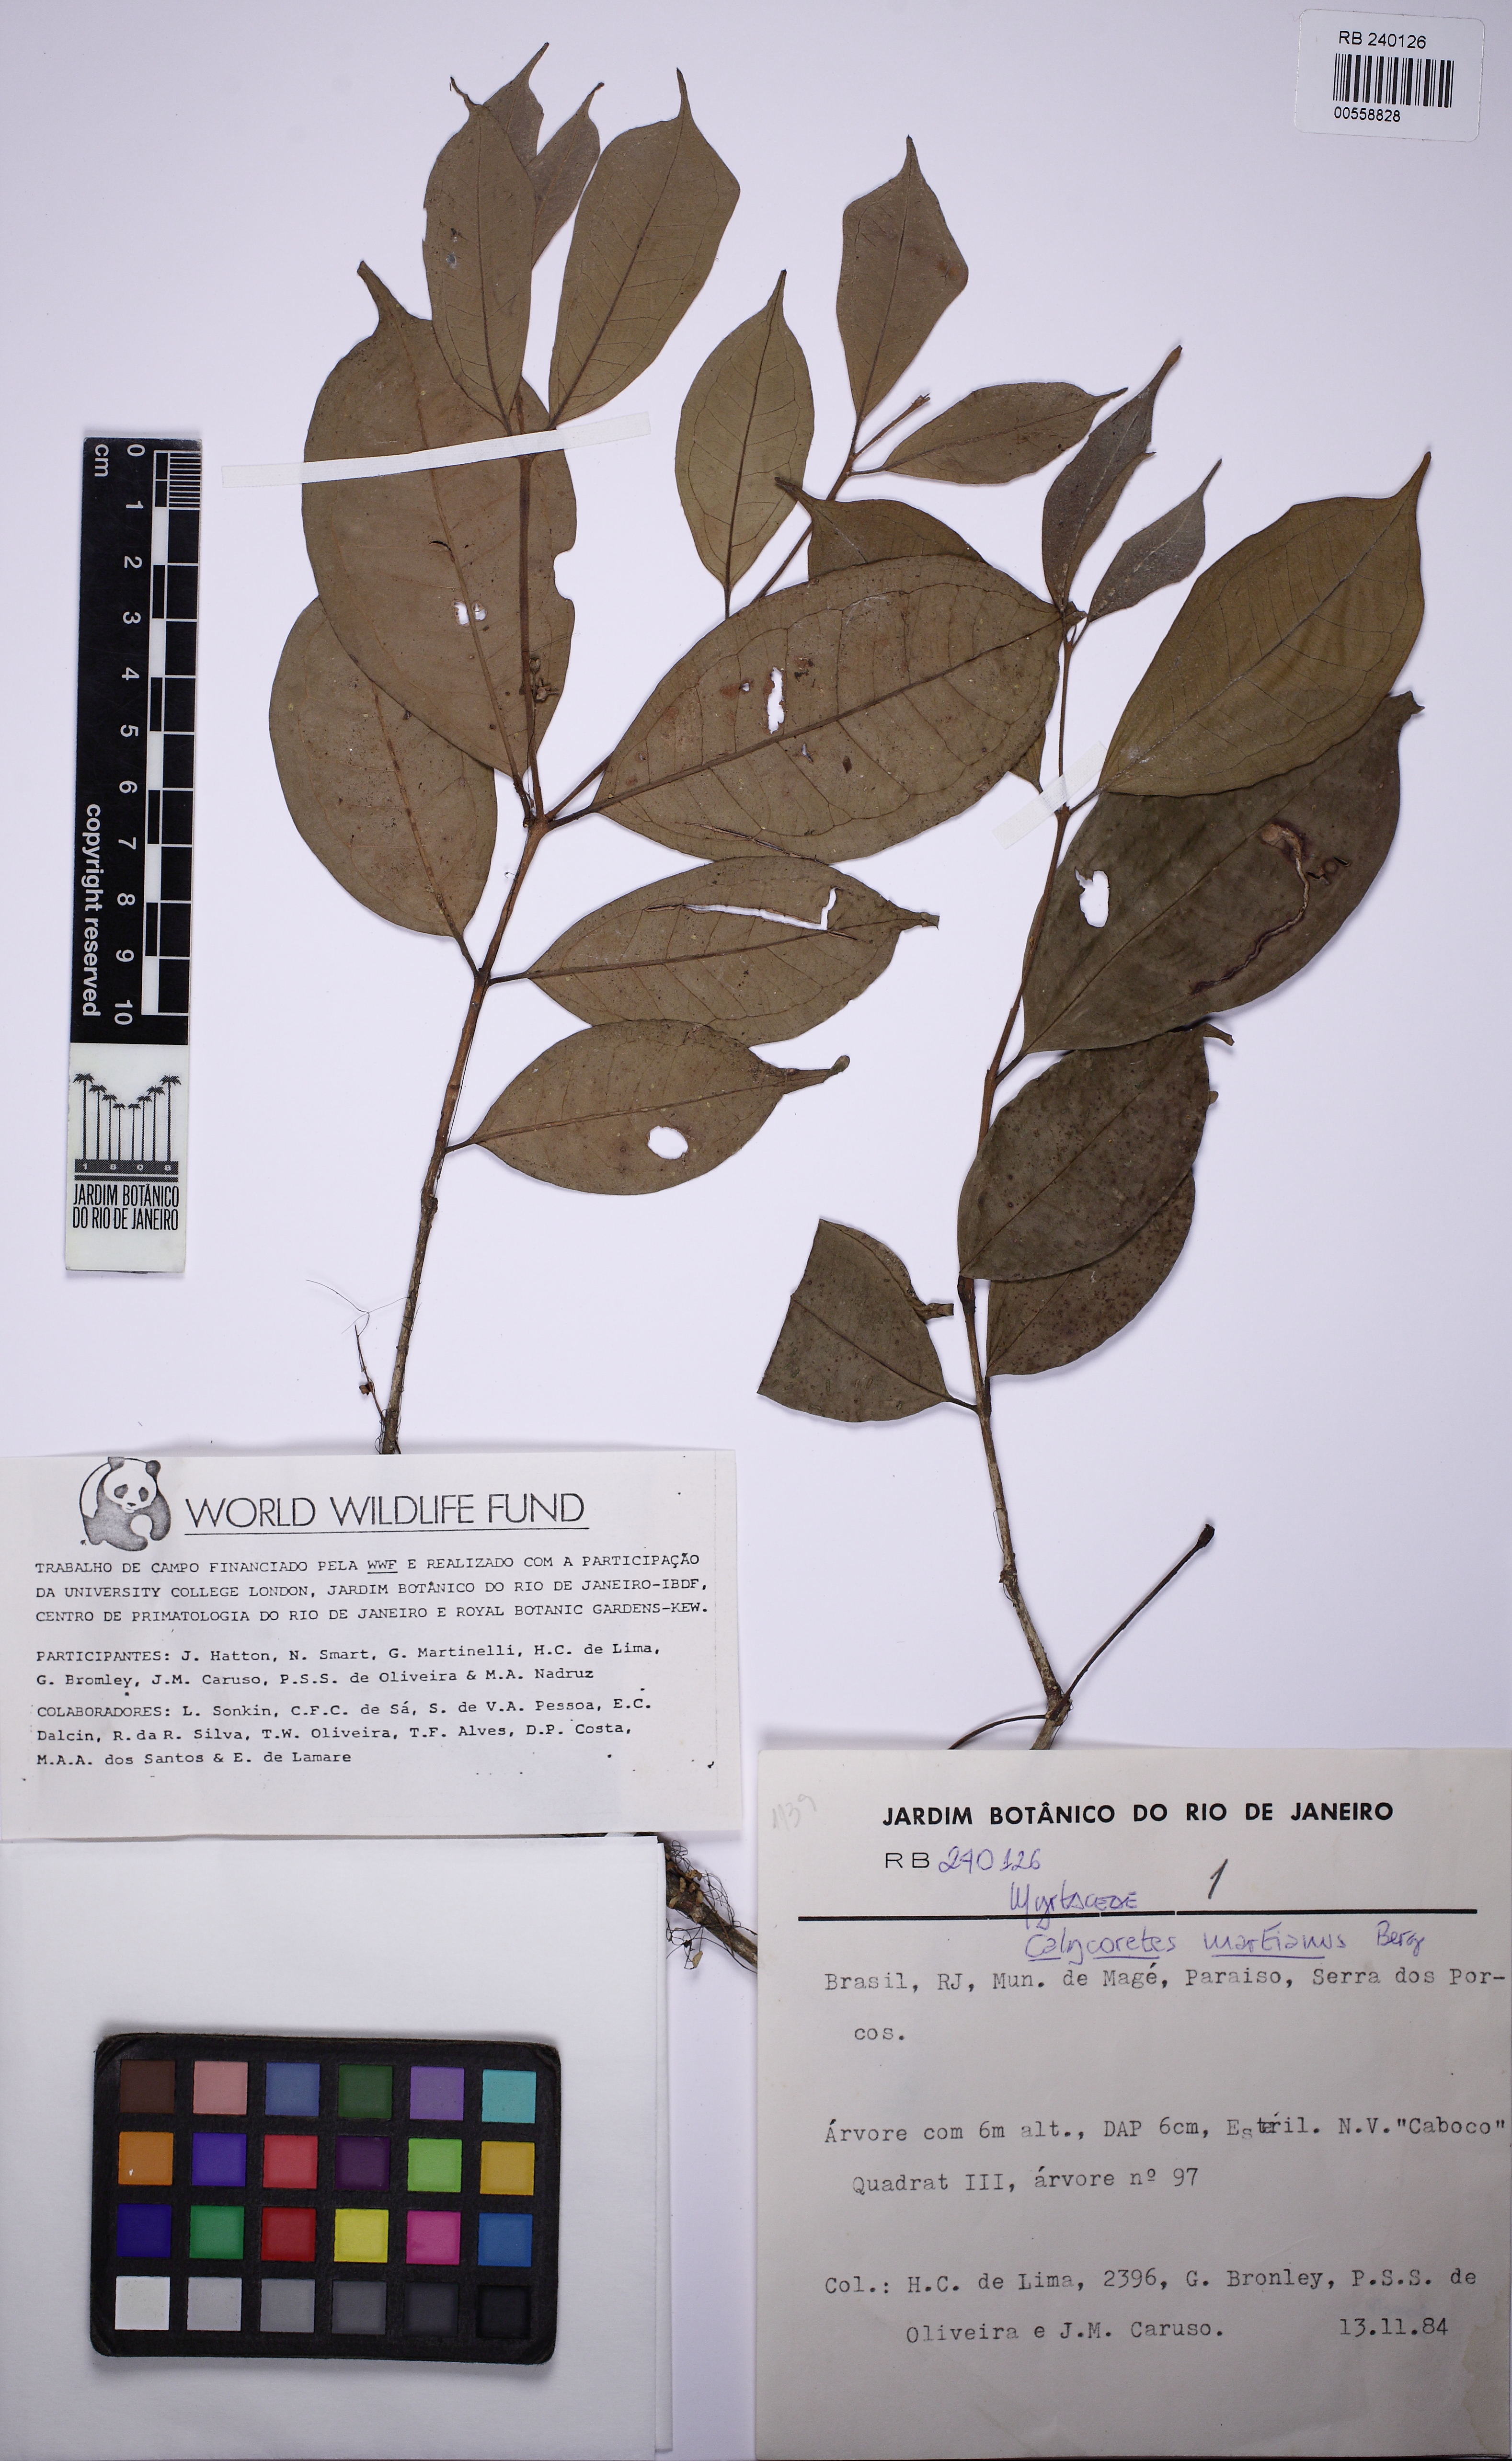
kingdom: Plantae
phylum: Tracheophyta
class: Magnoliopsida
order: Myrtales
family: Myrtaceae
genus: Eugenia
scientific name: Eugenia brevistyla
